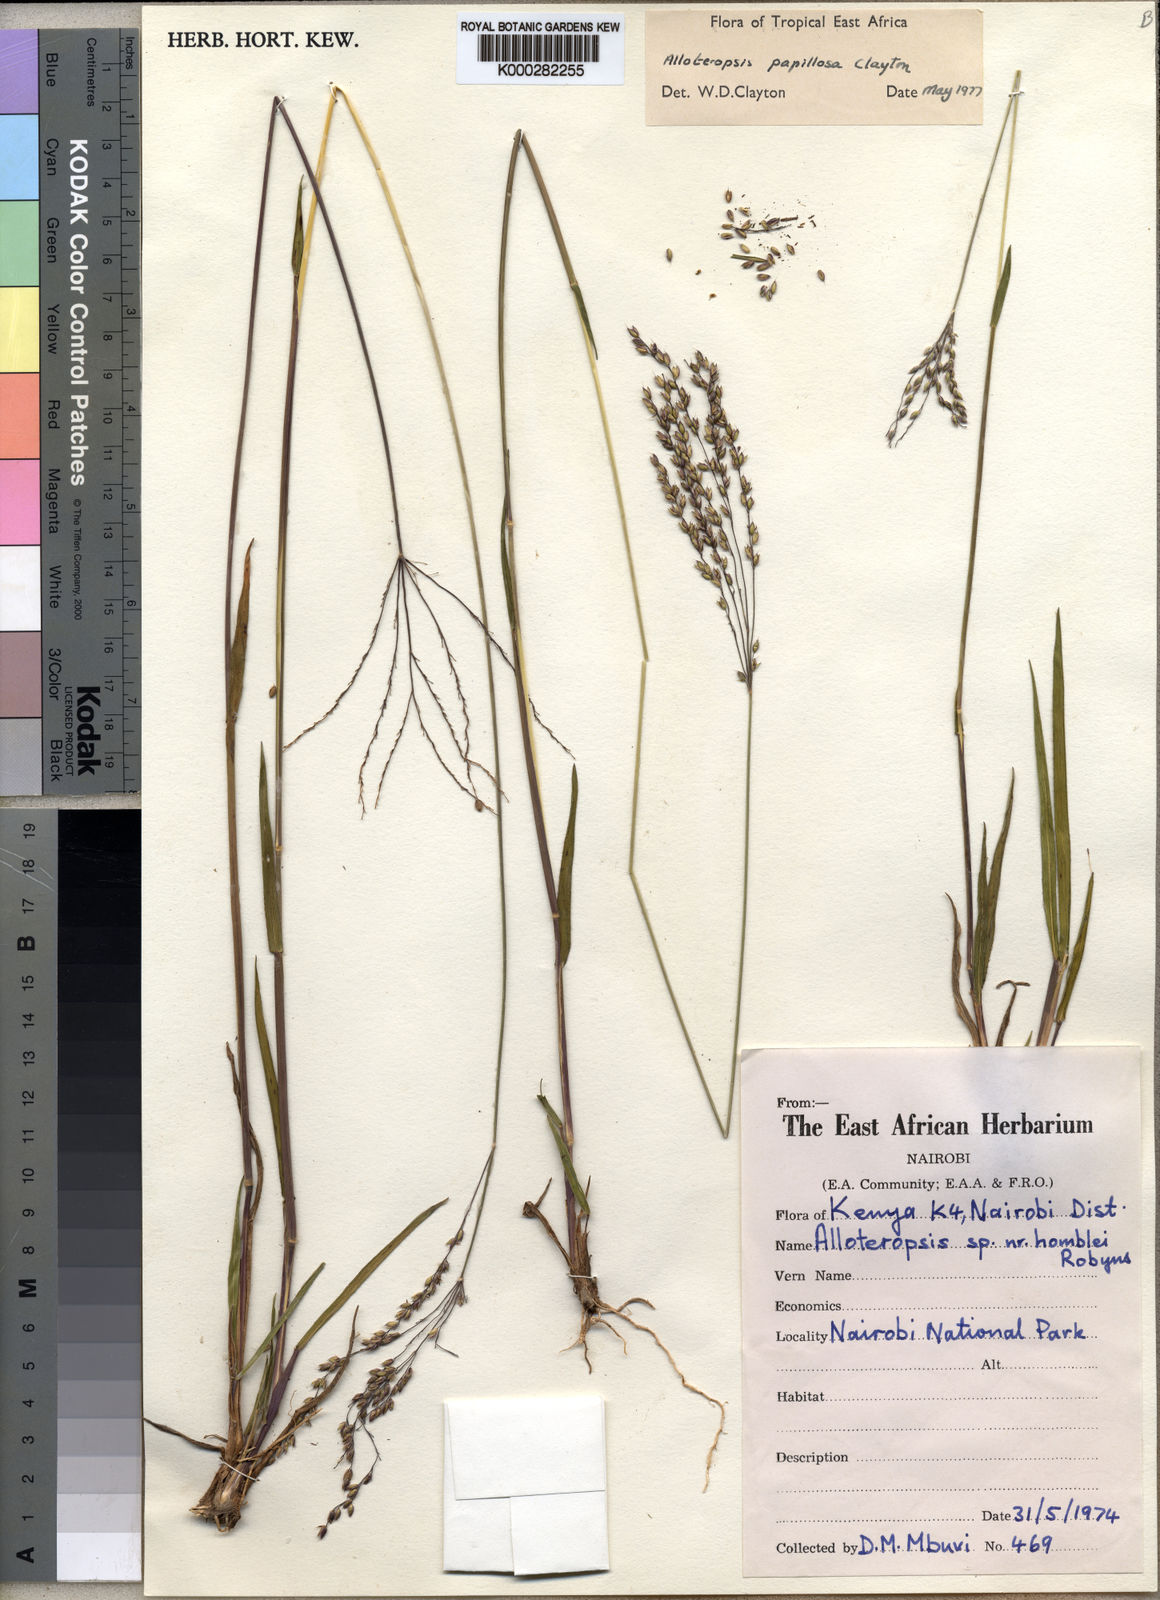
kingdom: Plantae
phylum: Tracheophyta
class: Liliopsida
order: Poales
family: Poaceae
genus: Alloteropsis
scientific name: Alloteropsis papillosa
